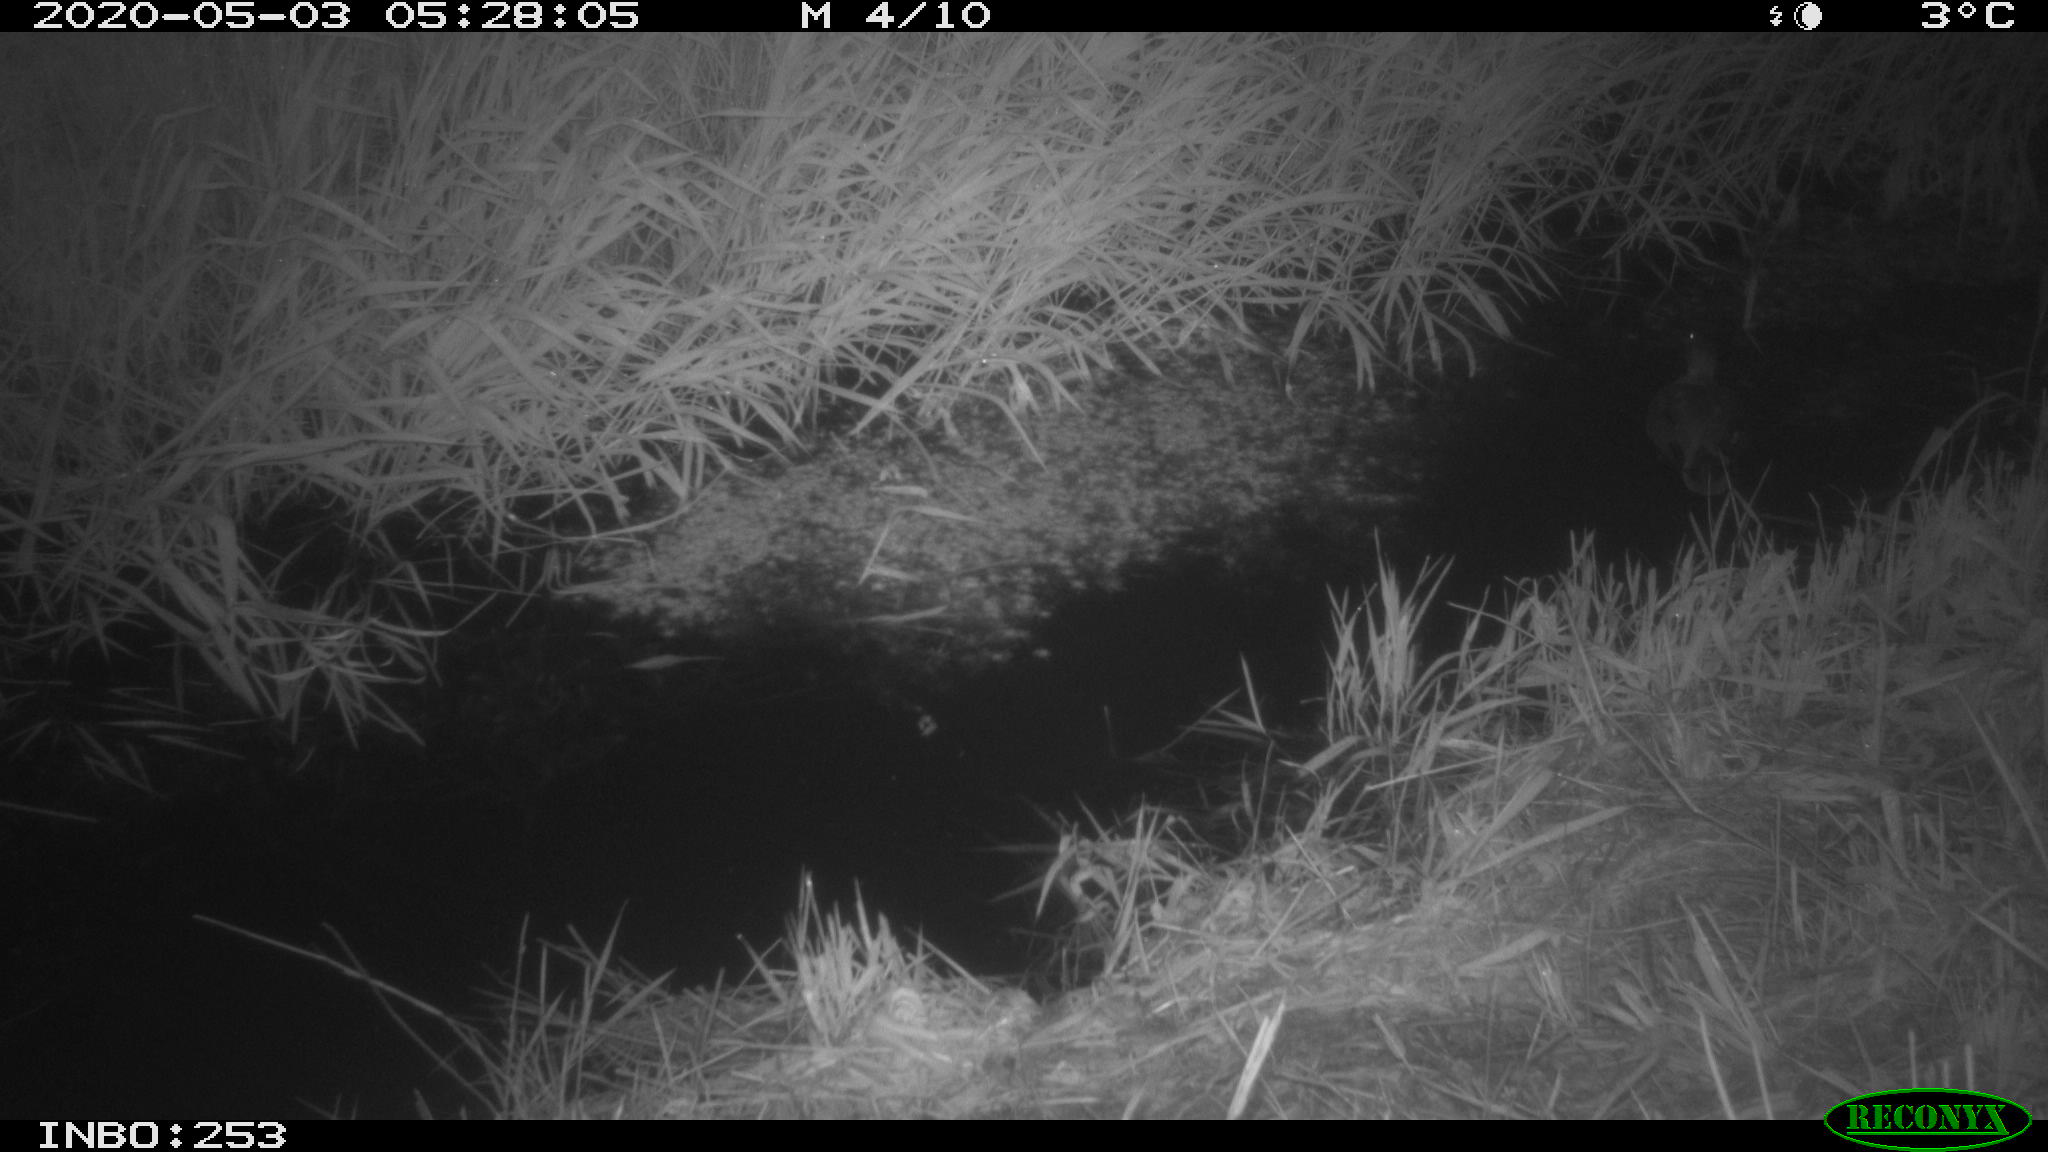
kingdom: Animalia
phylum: Chordata
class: Aves
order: Anseriformes
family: Anatidae
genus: Mareca
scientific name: Mareca strepera
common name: Gadwall
